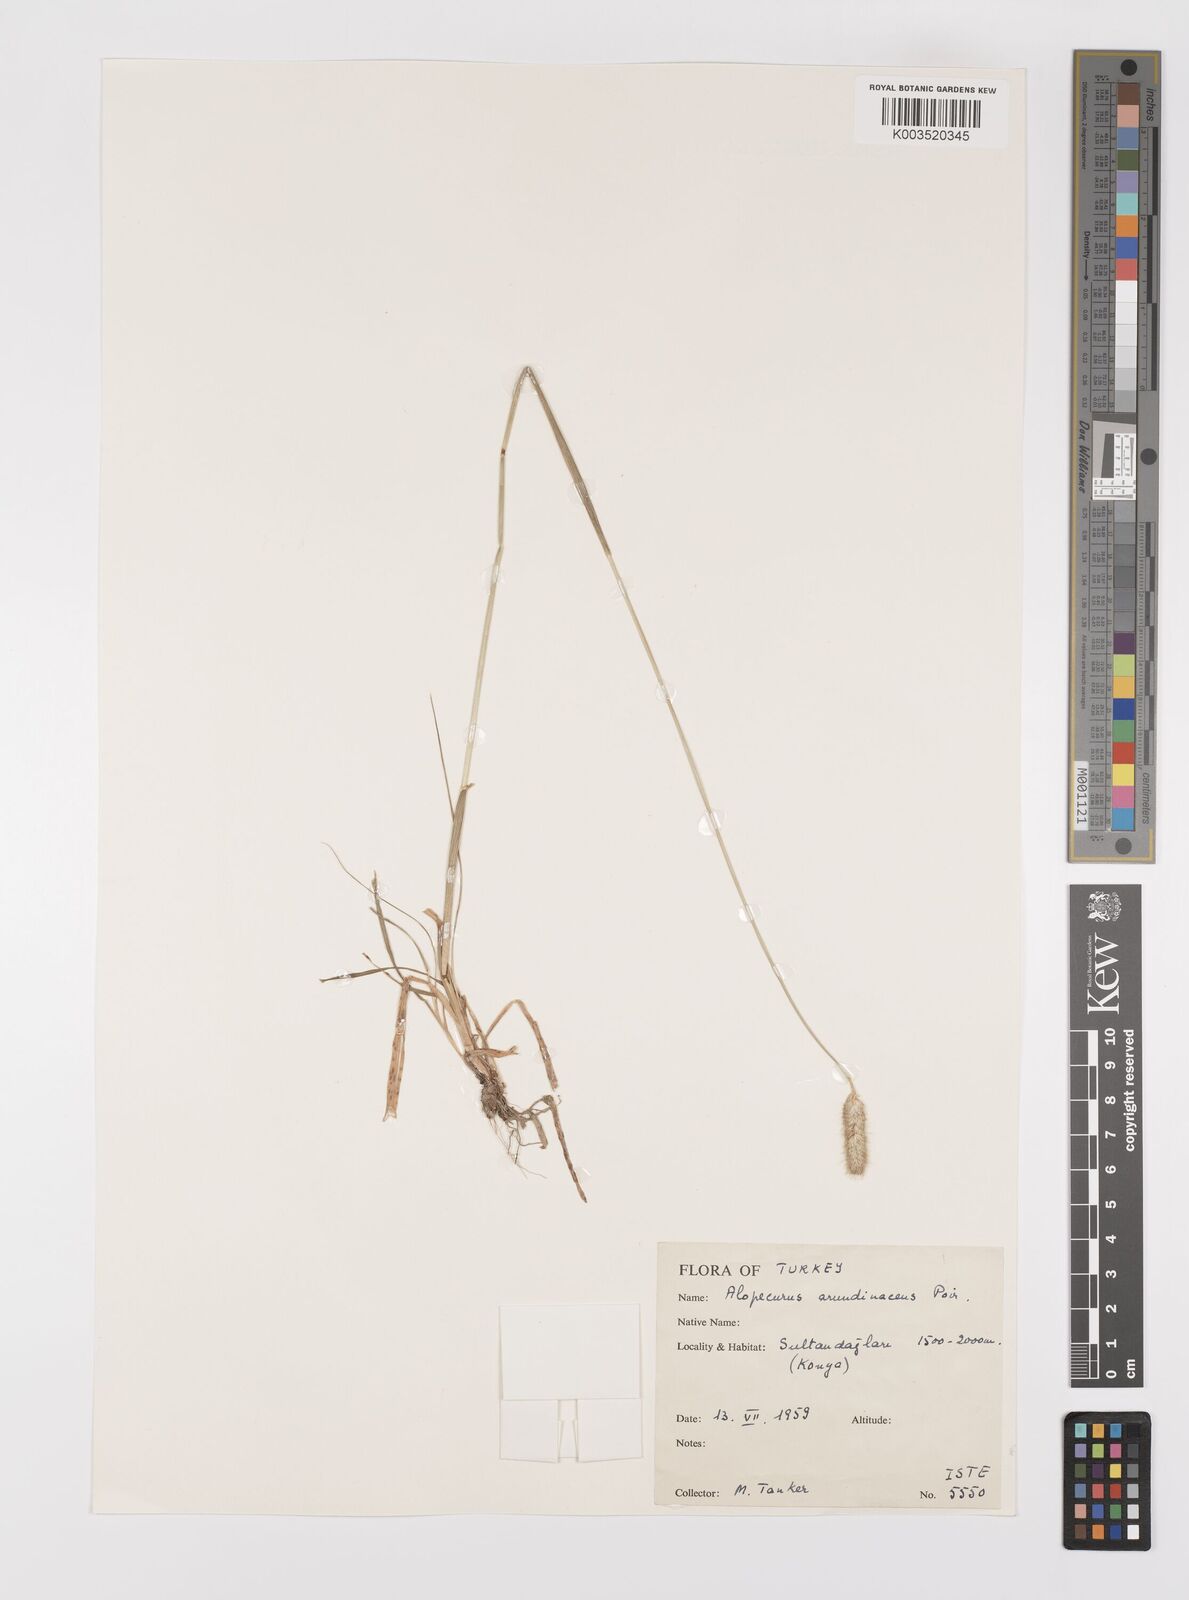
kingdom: Plantae
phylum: Tracheophyta
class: Liliopsida
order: Poales
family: Poaceae
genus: Alopecurus
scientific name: Alopecurus arundinaceus
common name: Creeping meadow foxtail
